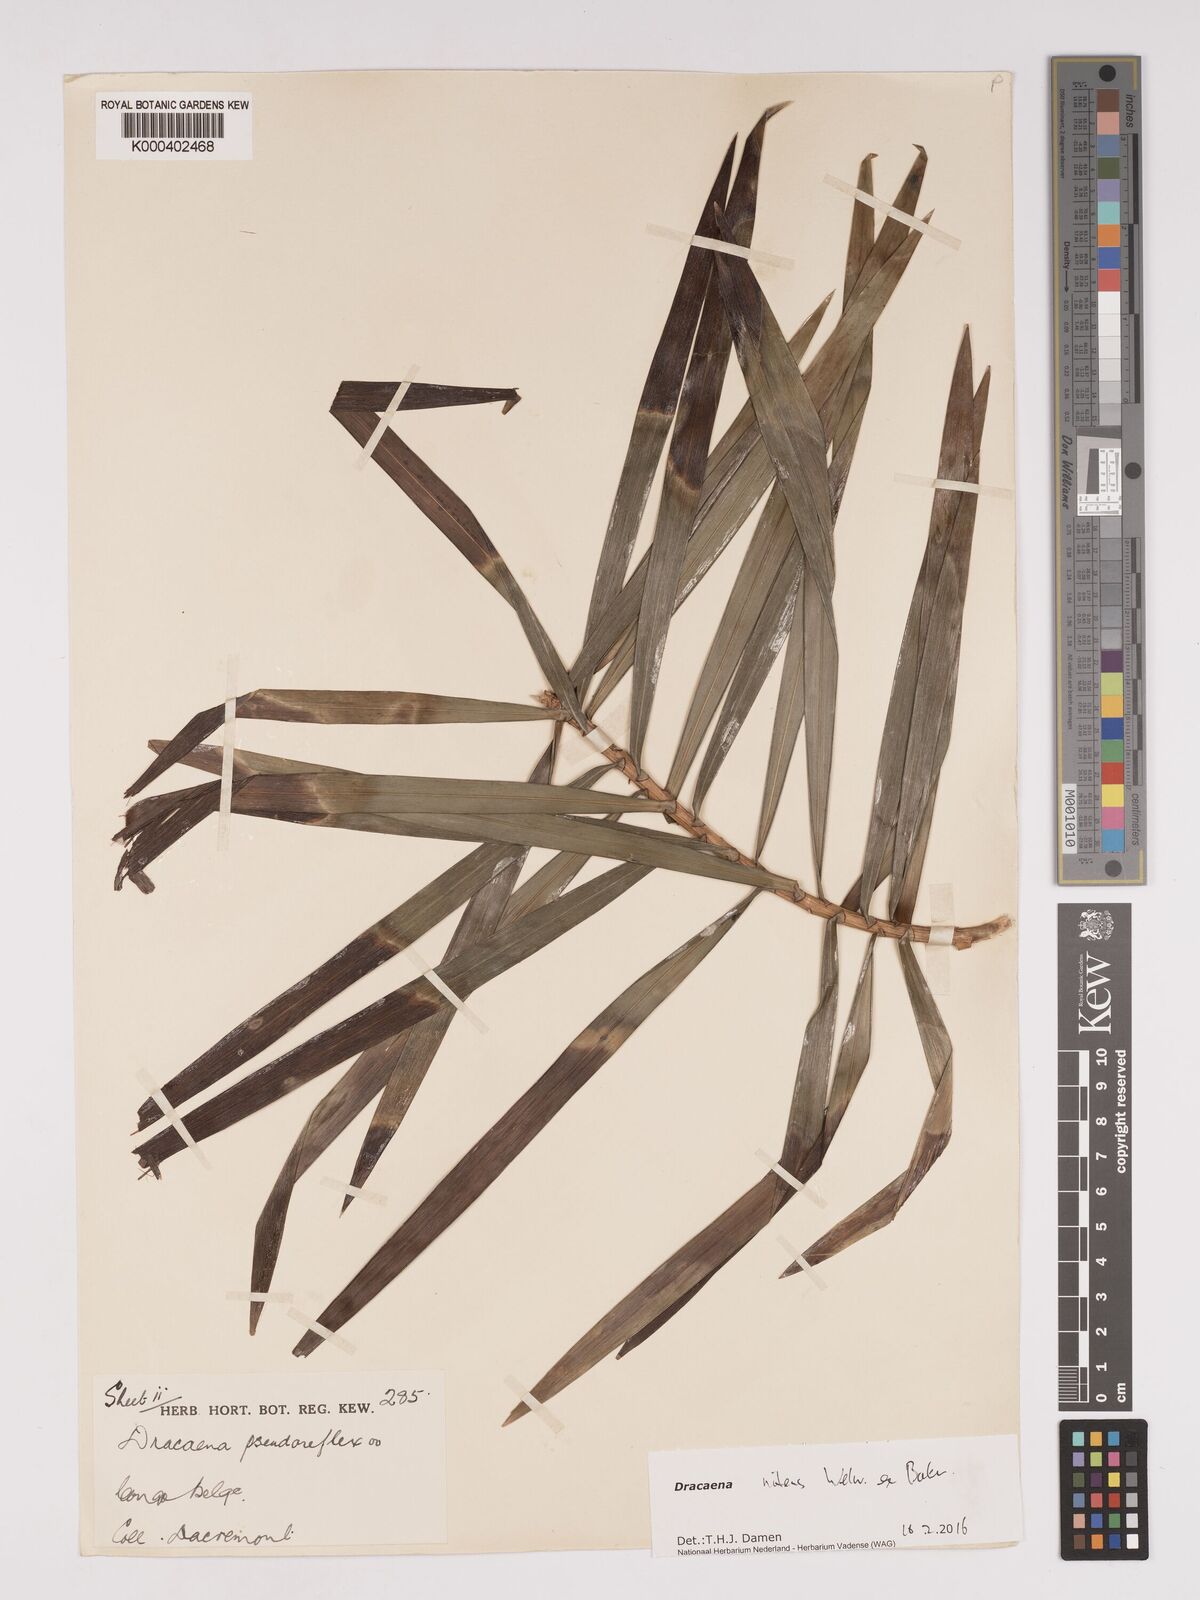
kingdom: Plantae
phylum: Tracheophyta
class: Liliopsida
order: Asparagales
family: Asparagaceae
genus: Dracaena
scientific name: Dracaena nitens
